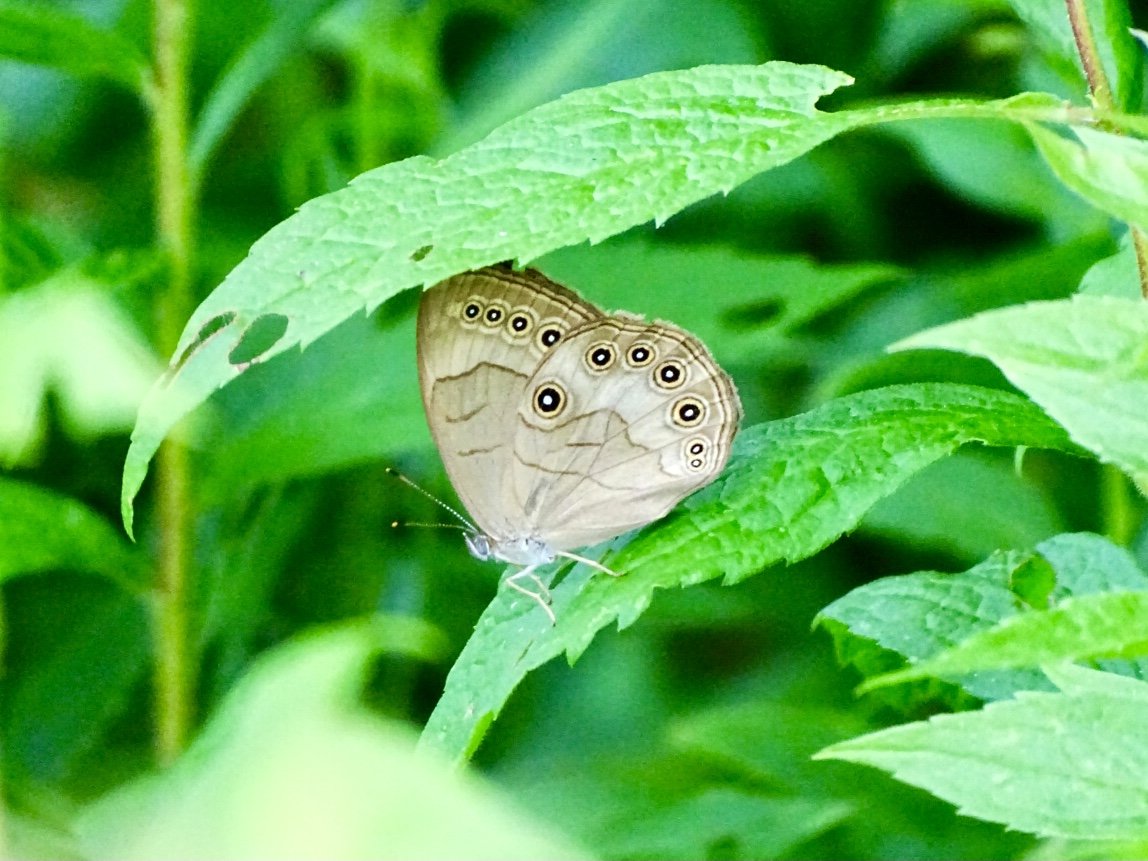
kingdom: Animalia
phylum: Arthropoda
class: Insecta
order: Lepidoptera
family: Nymphalidae
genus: Lethe
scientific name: Lethe eurydice
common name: Appalachian Eyed Brown
